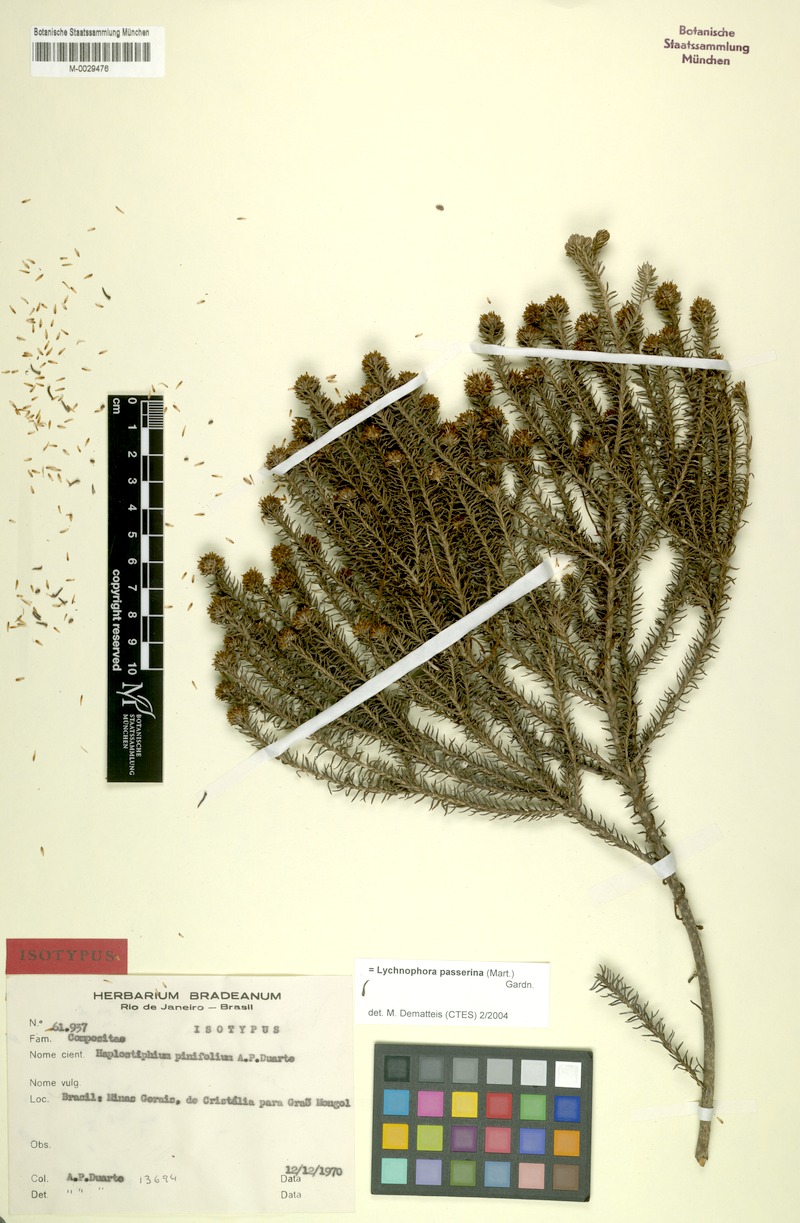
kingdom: Plantae
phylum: Tracheophyta
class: Magnoliopsida
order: Asterales
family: Asteraceae
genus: Lychnophora
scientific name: Lychnophora passerina
